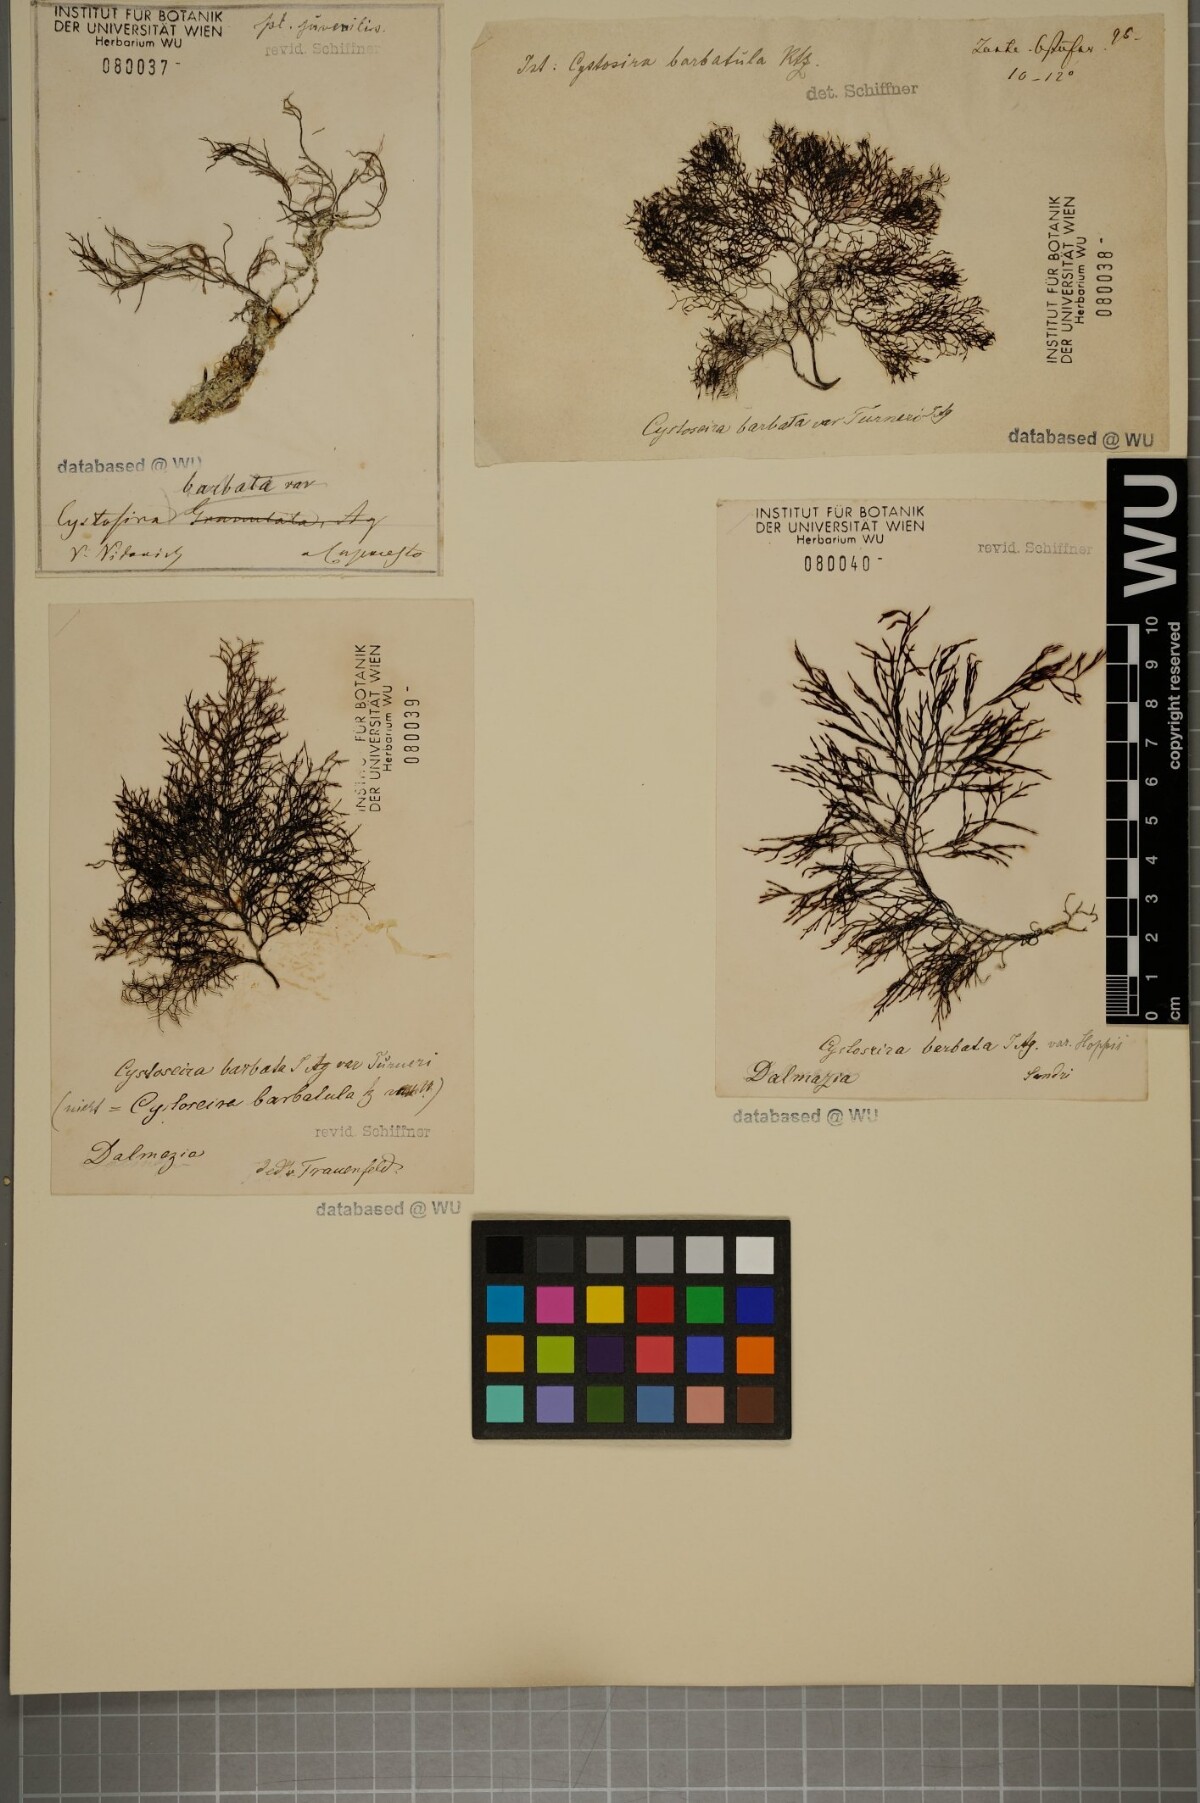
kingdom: Chromista
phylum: Ochrophyta
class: Phaeophyceae
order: Fucales
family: Sargassaceae
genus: Cystoseira
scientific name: Cystoseira Gongolaria barbata
